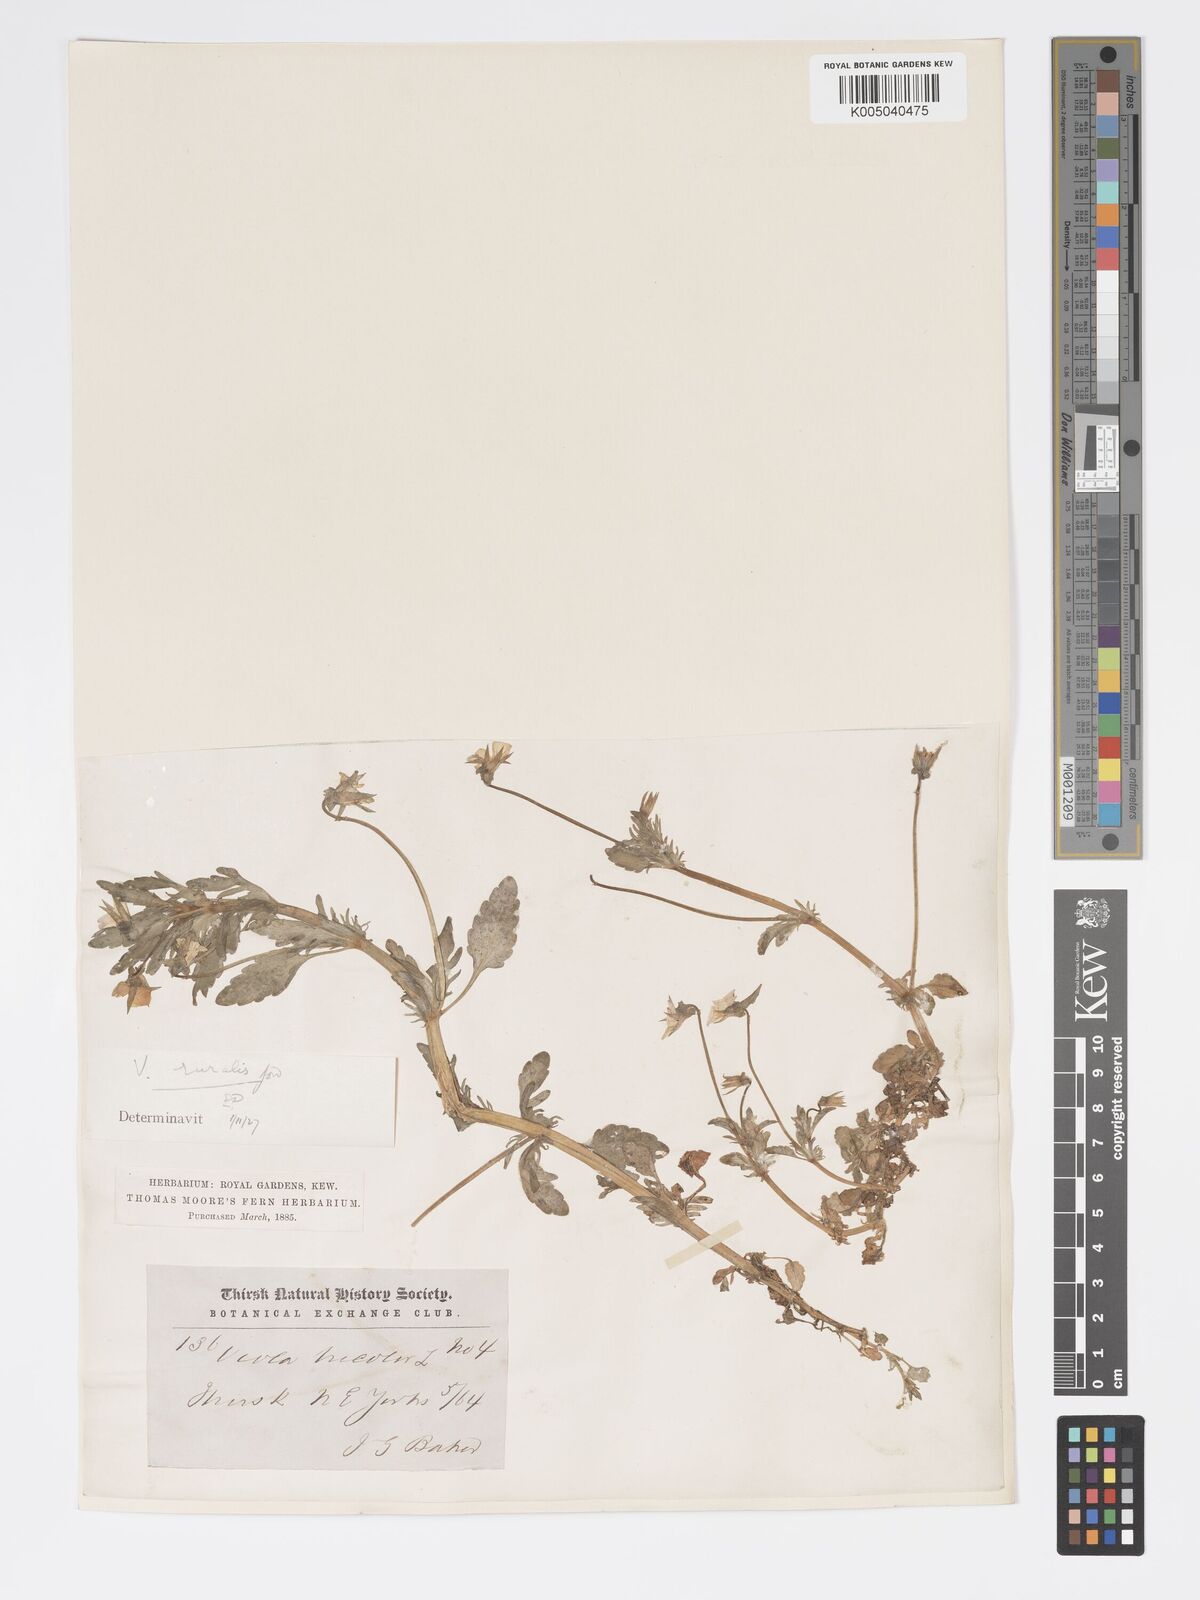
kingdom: Plantae
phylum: Tracheophyta
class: Magnoliopsida
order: Malpighiales
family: Violaceae
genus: Viola
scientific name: Viola arvensis
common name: Field pansy
